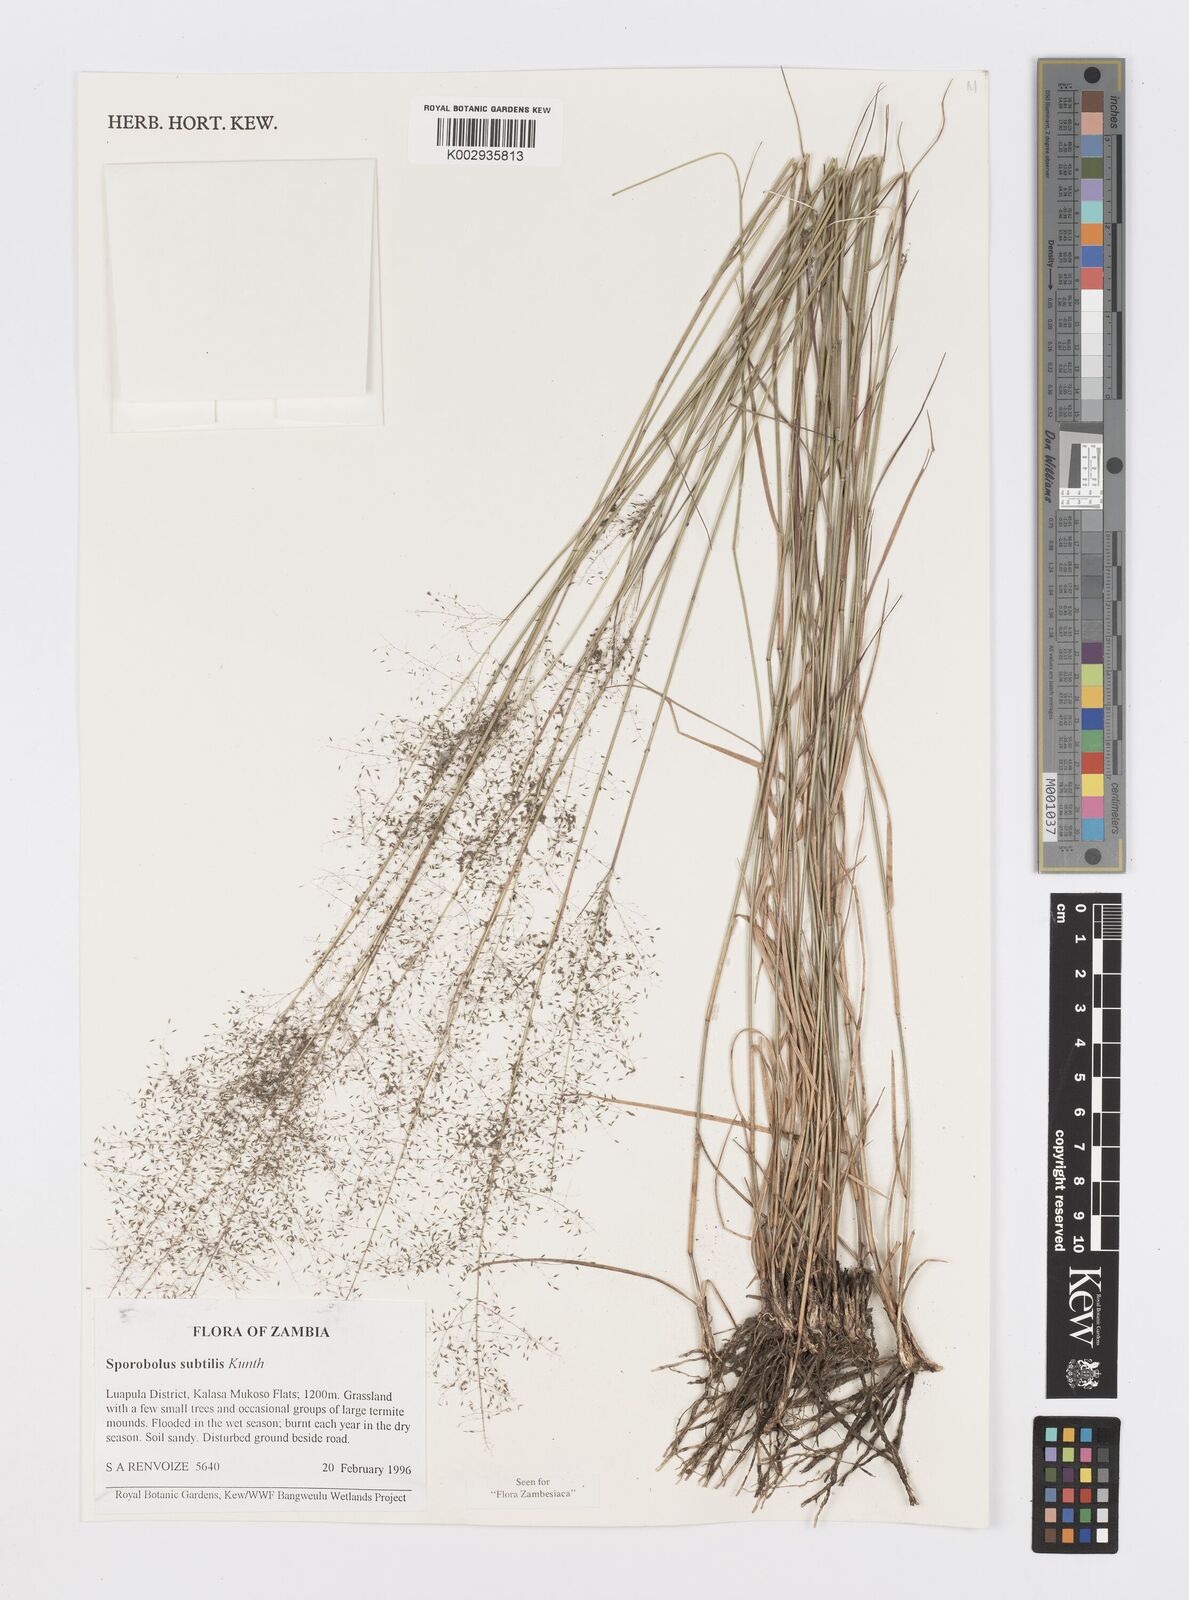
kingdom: Plantae
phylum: Tracheophyta
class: Liliopsida
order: Poales
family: Poaceae
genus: Sporobolus
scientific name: Sporobolus subtilis
